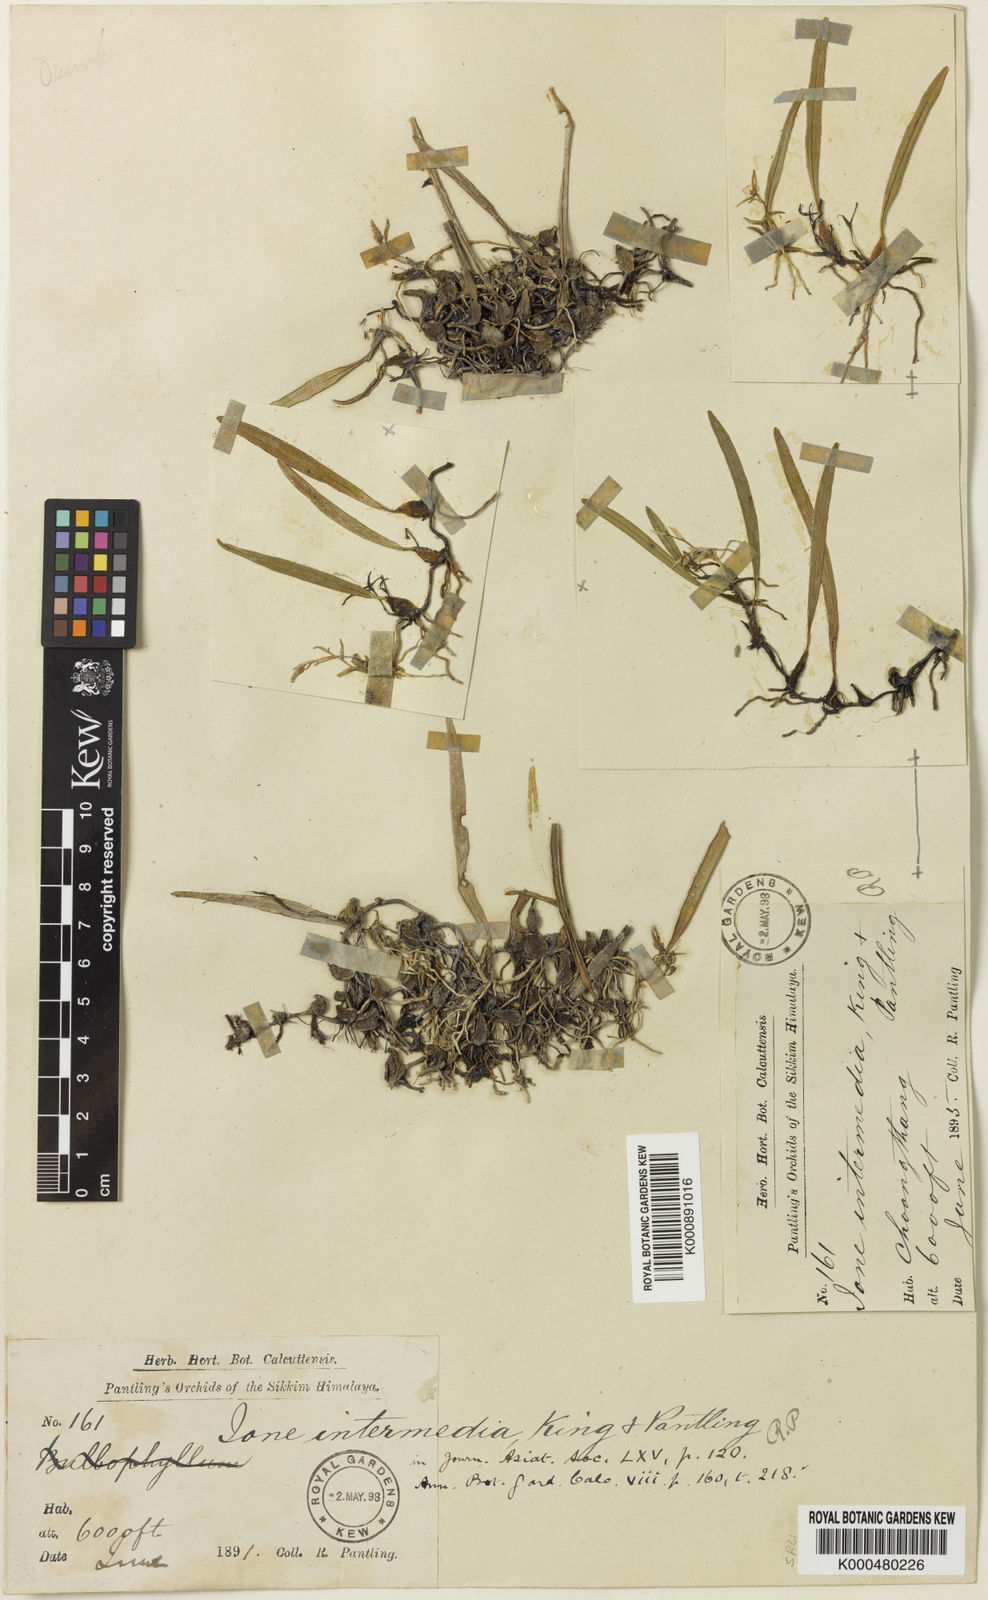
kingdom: Plantae
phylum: Tracheophyta
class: Liliopsida
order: Asparagales
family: Orchidaceae
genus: Bulbophyllum
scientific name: Bulbophyllum lopalanthum
